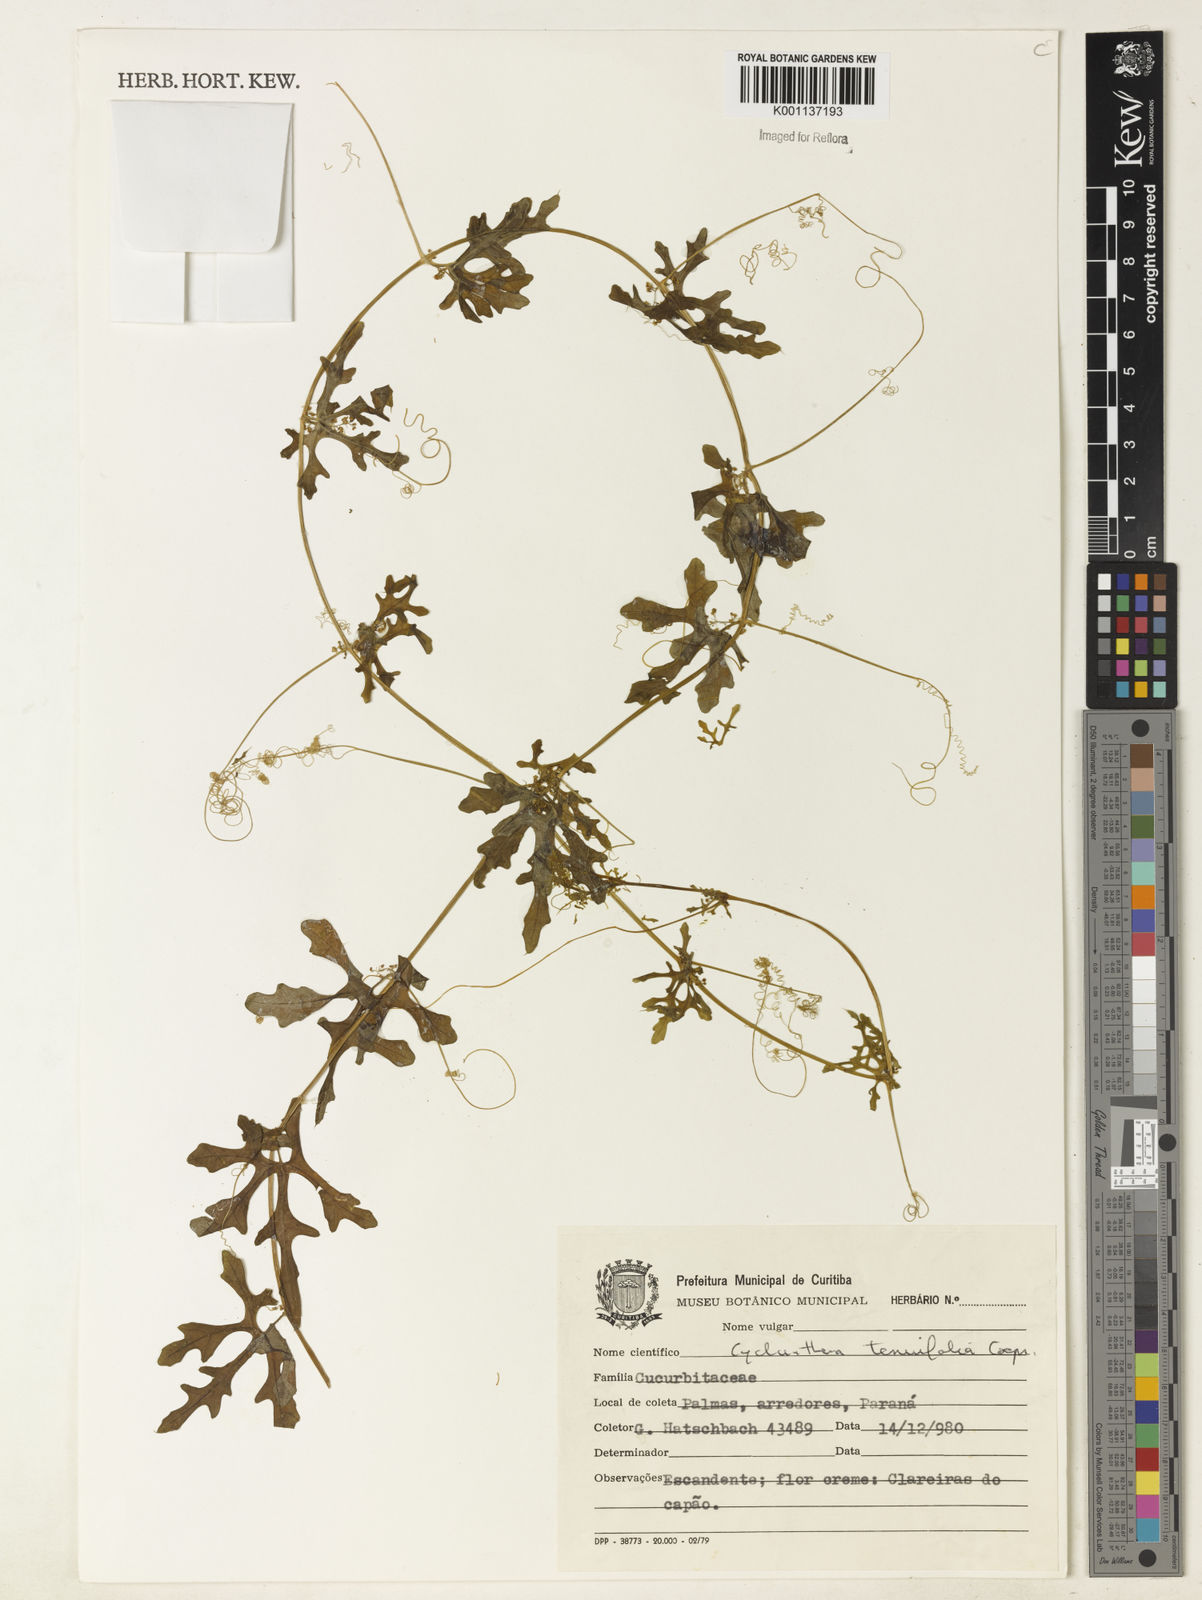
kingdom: Plantae
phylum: Tracheophyta
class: Magnoliopsida
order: Cucurbitales
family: Cucurbitaceae
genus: Cyclanthera
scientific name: Cyclanthera tenuifolia
